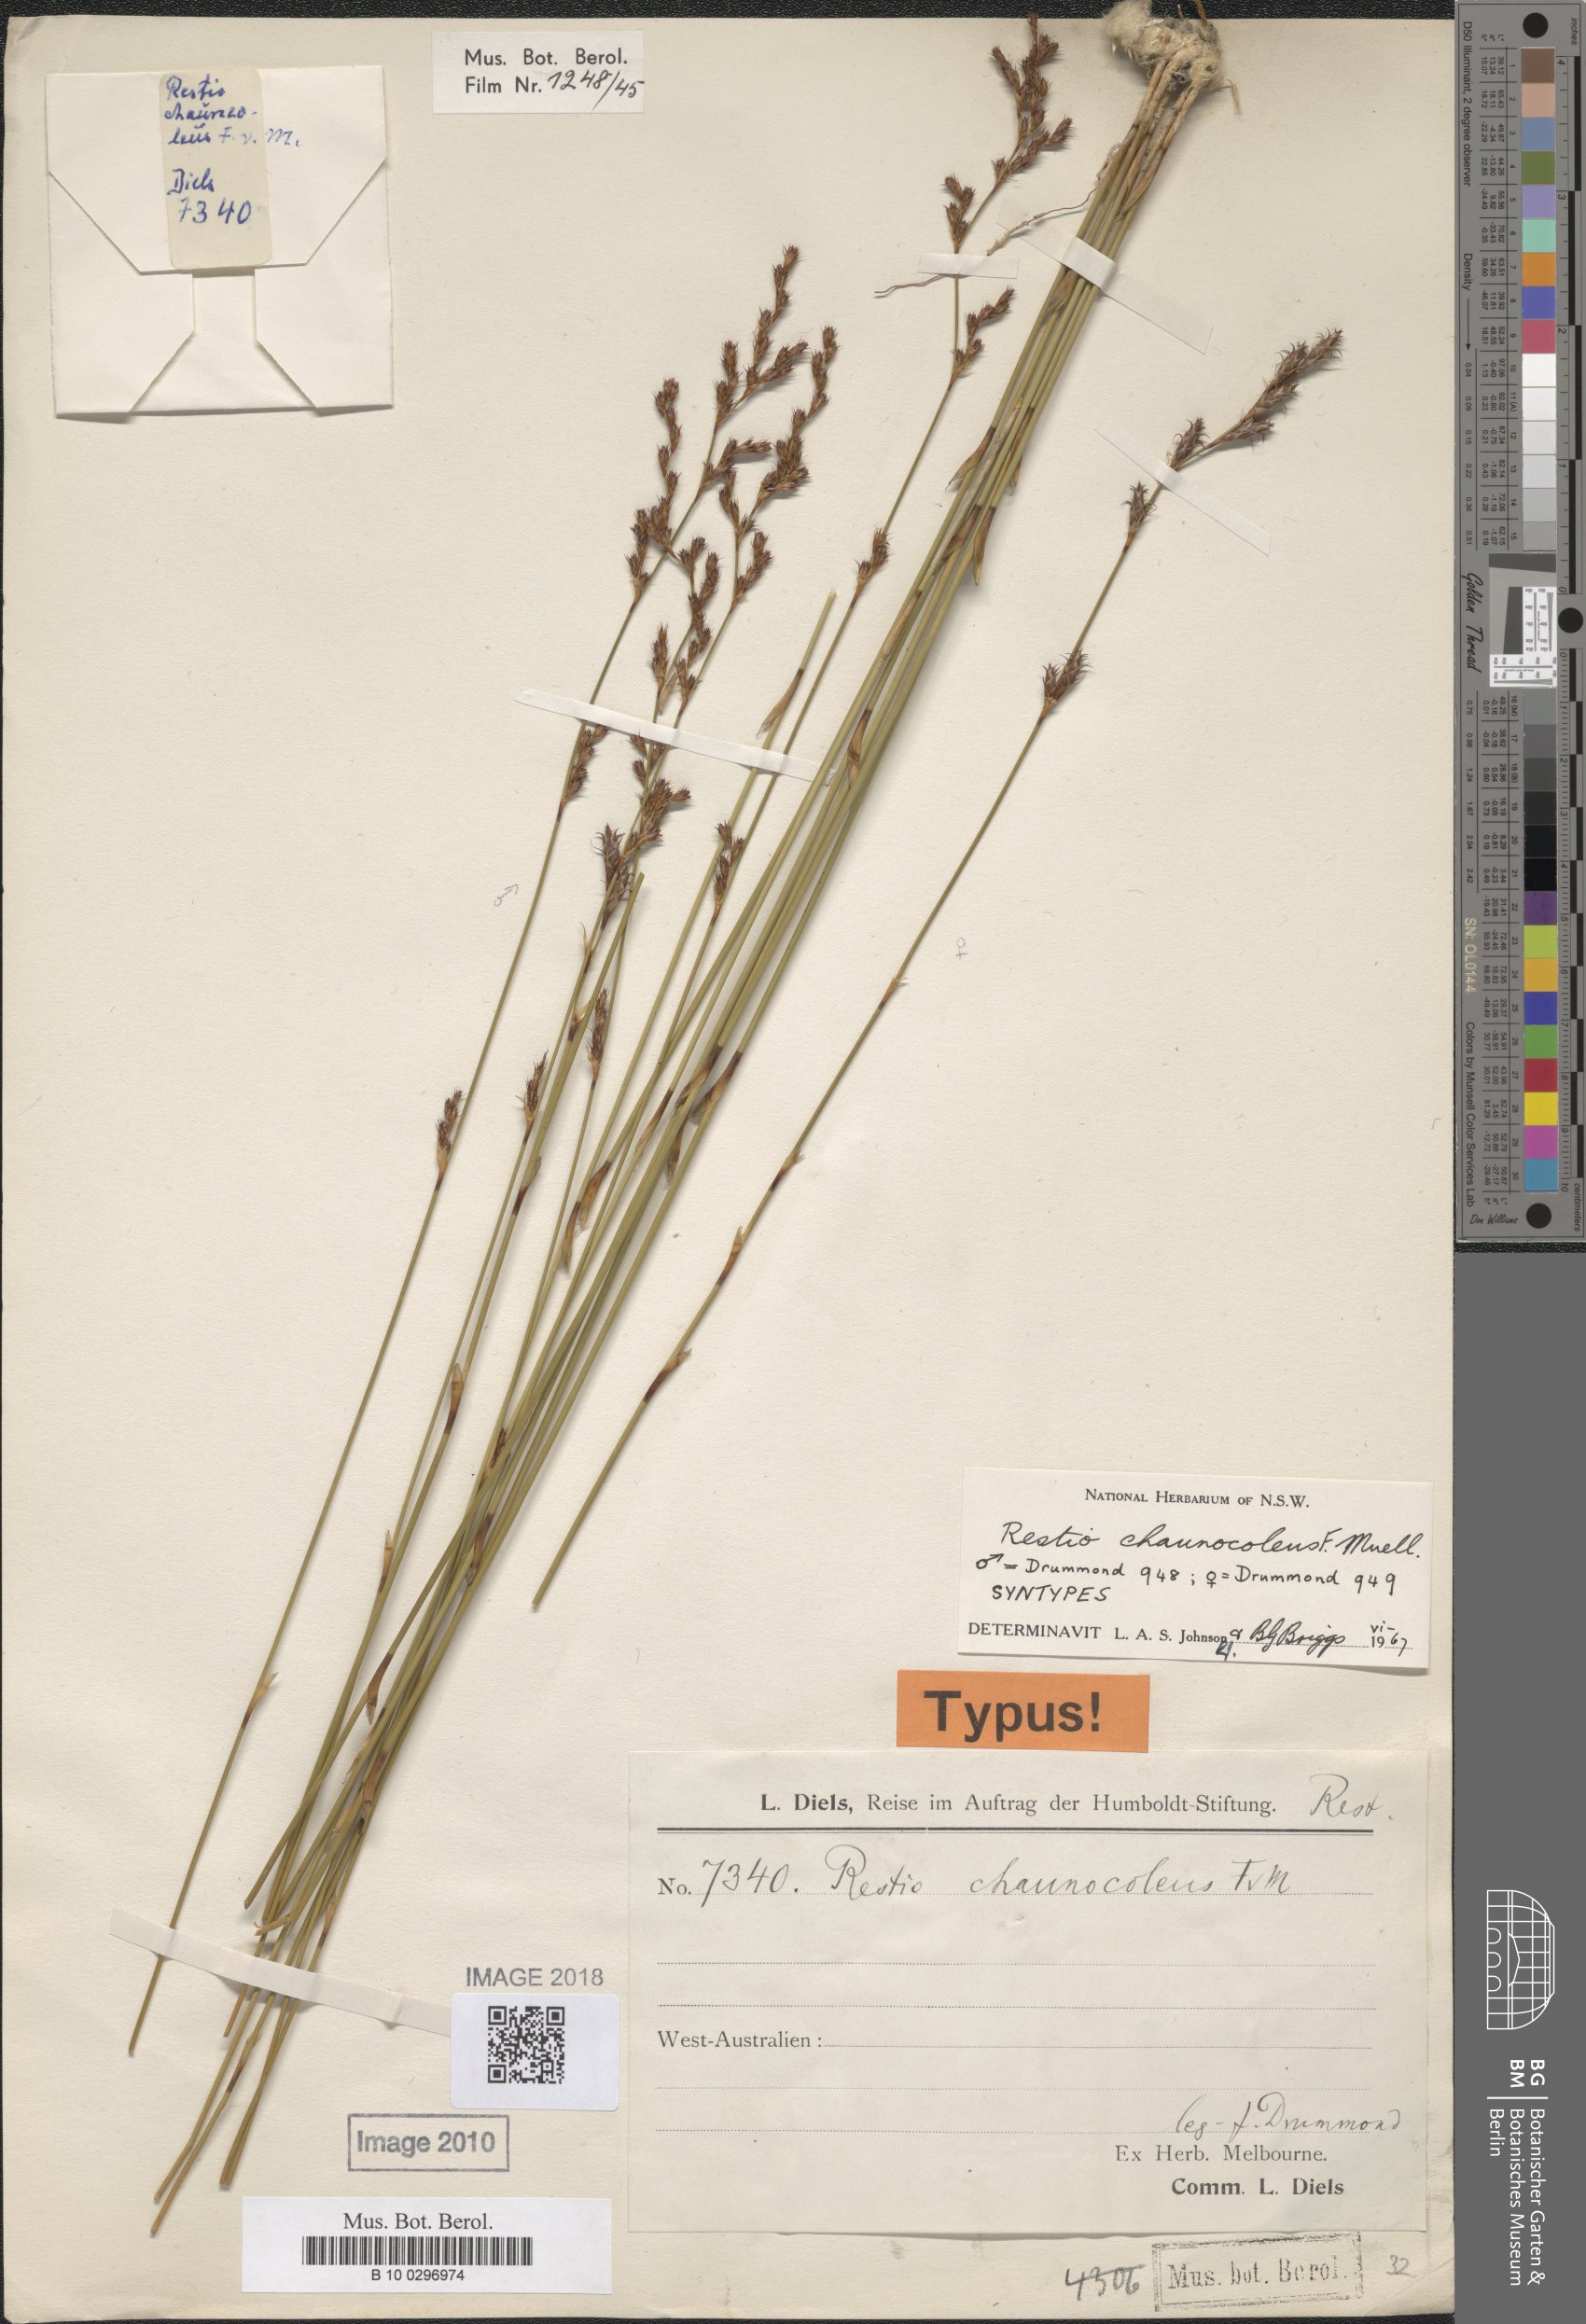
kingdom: Plantae
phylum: Tracheophyta
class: Liliopsida
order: Poales
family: Restionaceae
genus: Chordifex
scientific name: Chordifex chaunocoleus
